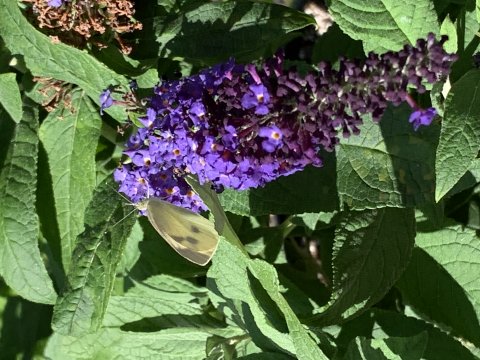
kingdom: Animalia
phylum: Arthropoda
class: Insecta
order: Lepidoptera
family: Pieridae
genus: Pieris
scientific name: Pieris rapae
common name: Cabbage White
